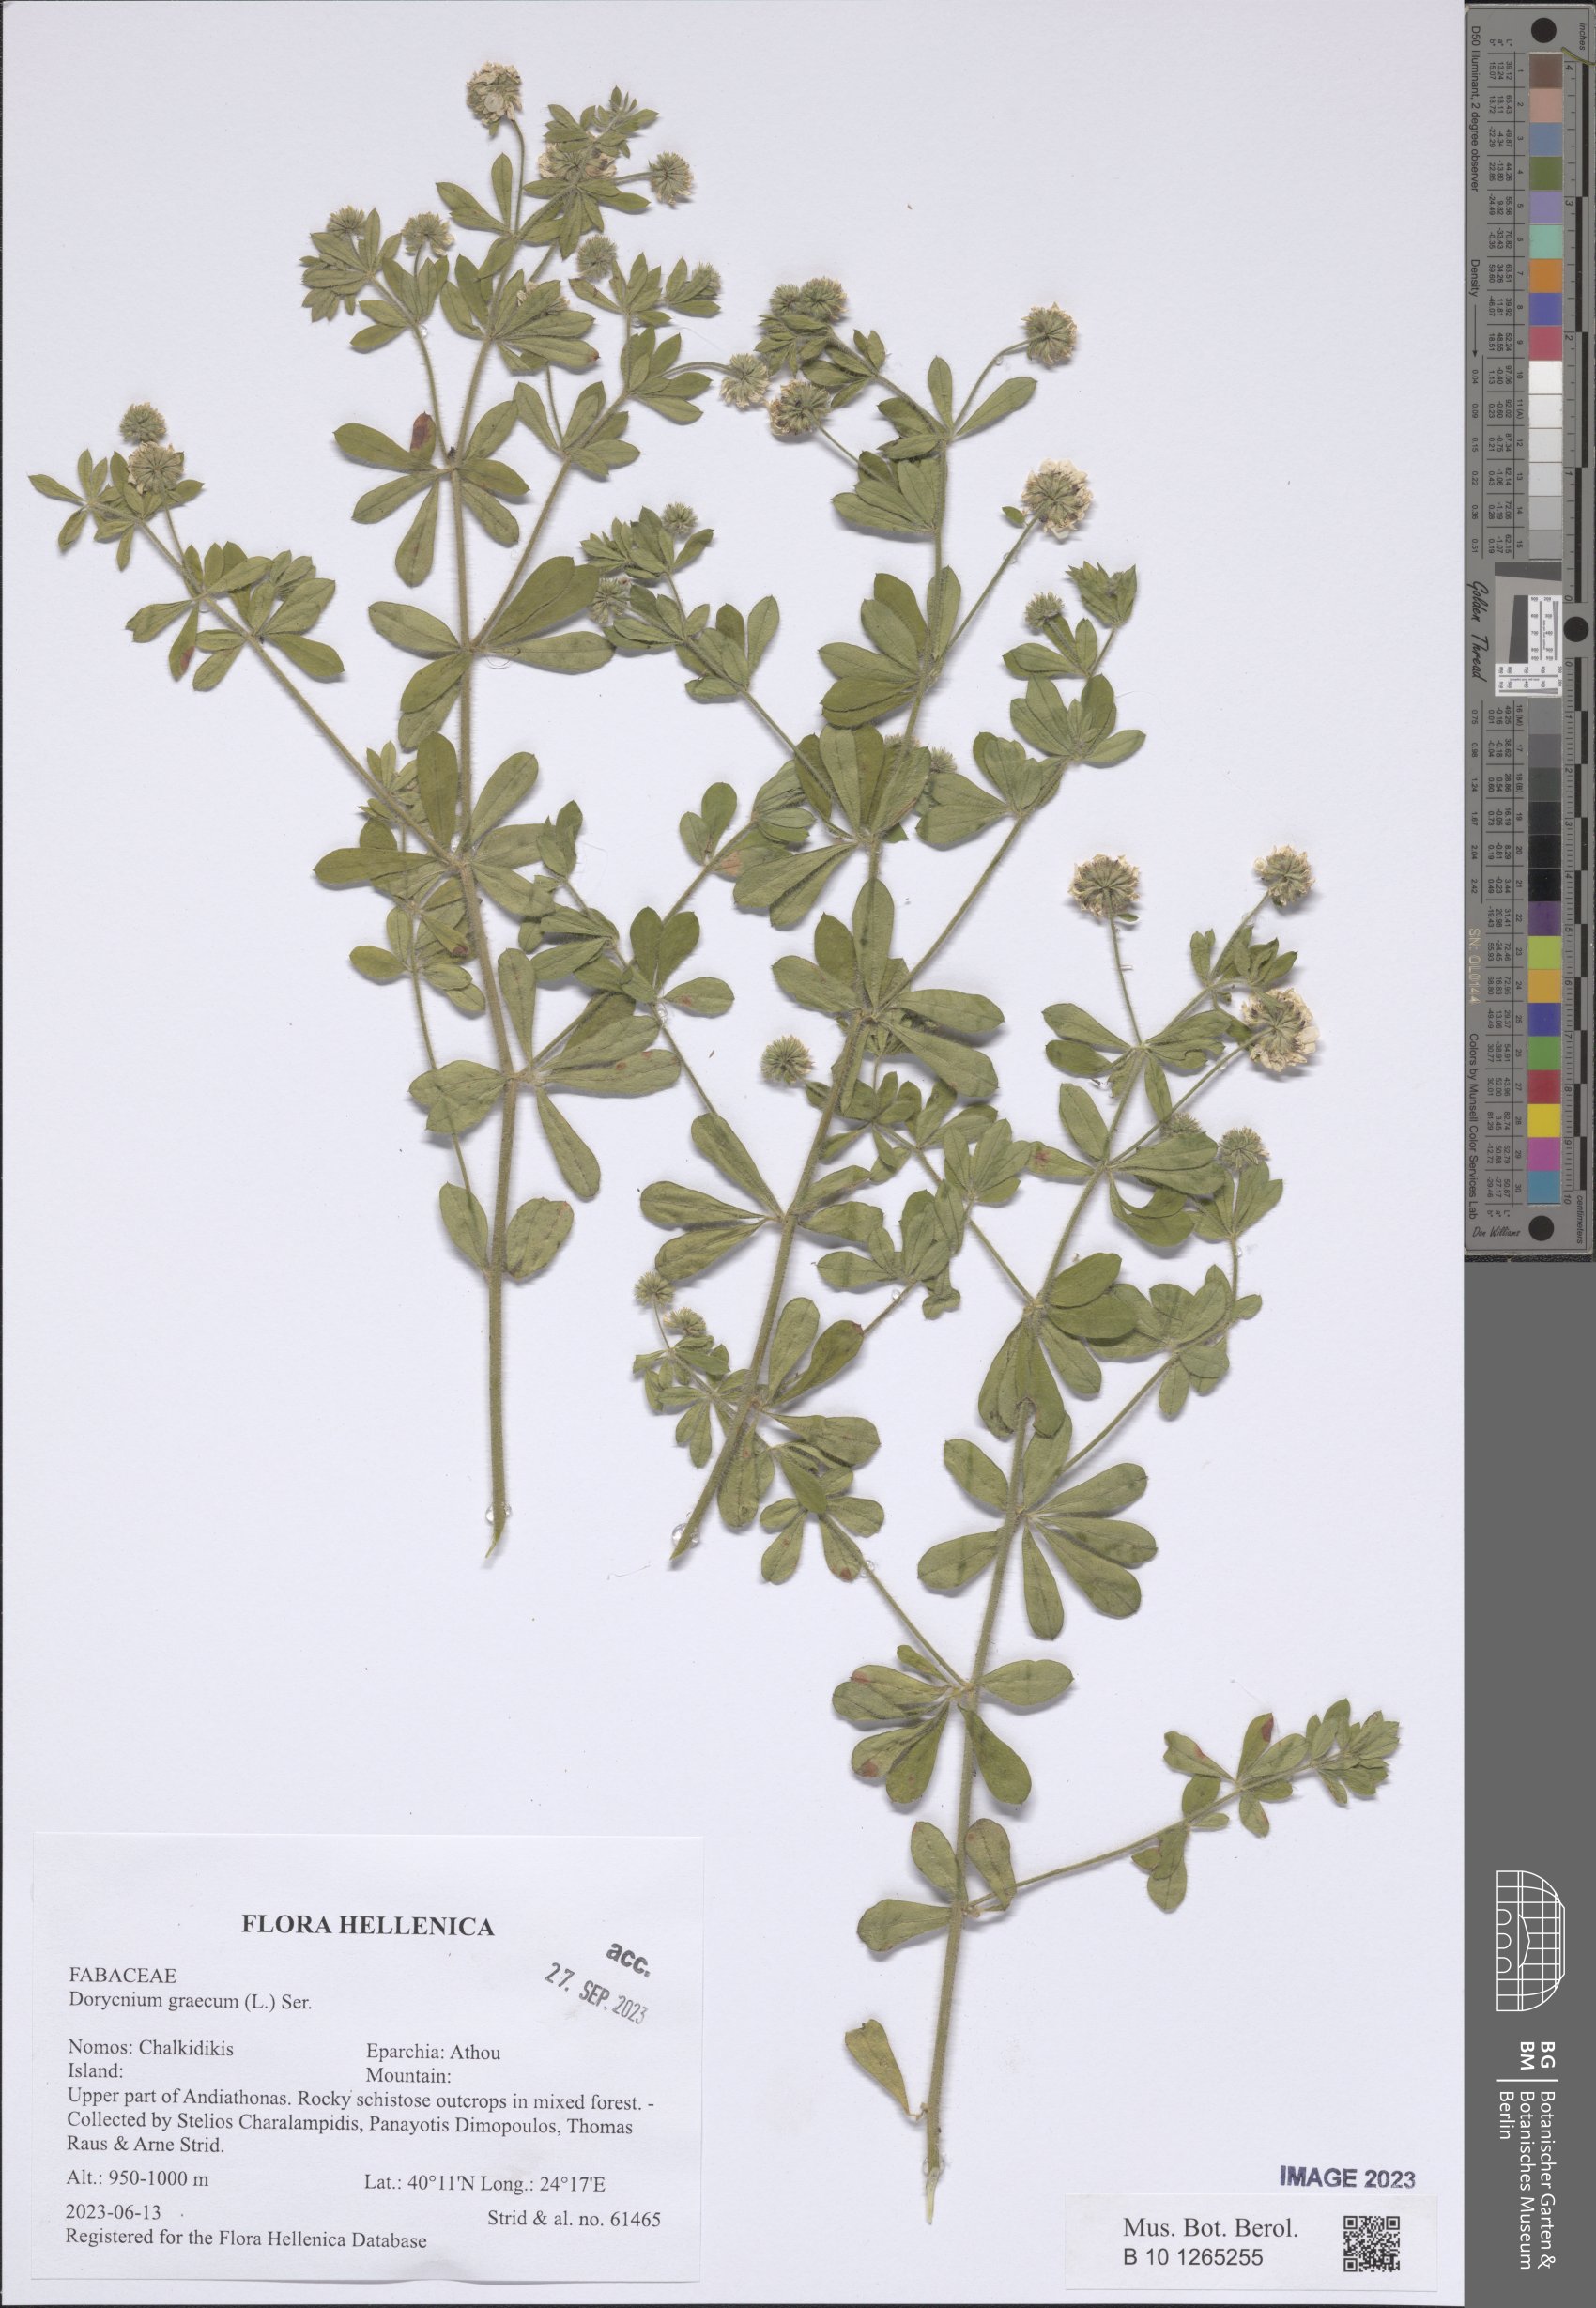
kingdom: Plantae
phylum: Tracheophyta
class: Magnoliopsida
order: Fabales
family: Fabaceae
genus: Lotus
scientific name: Lotus graecus
